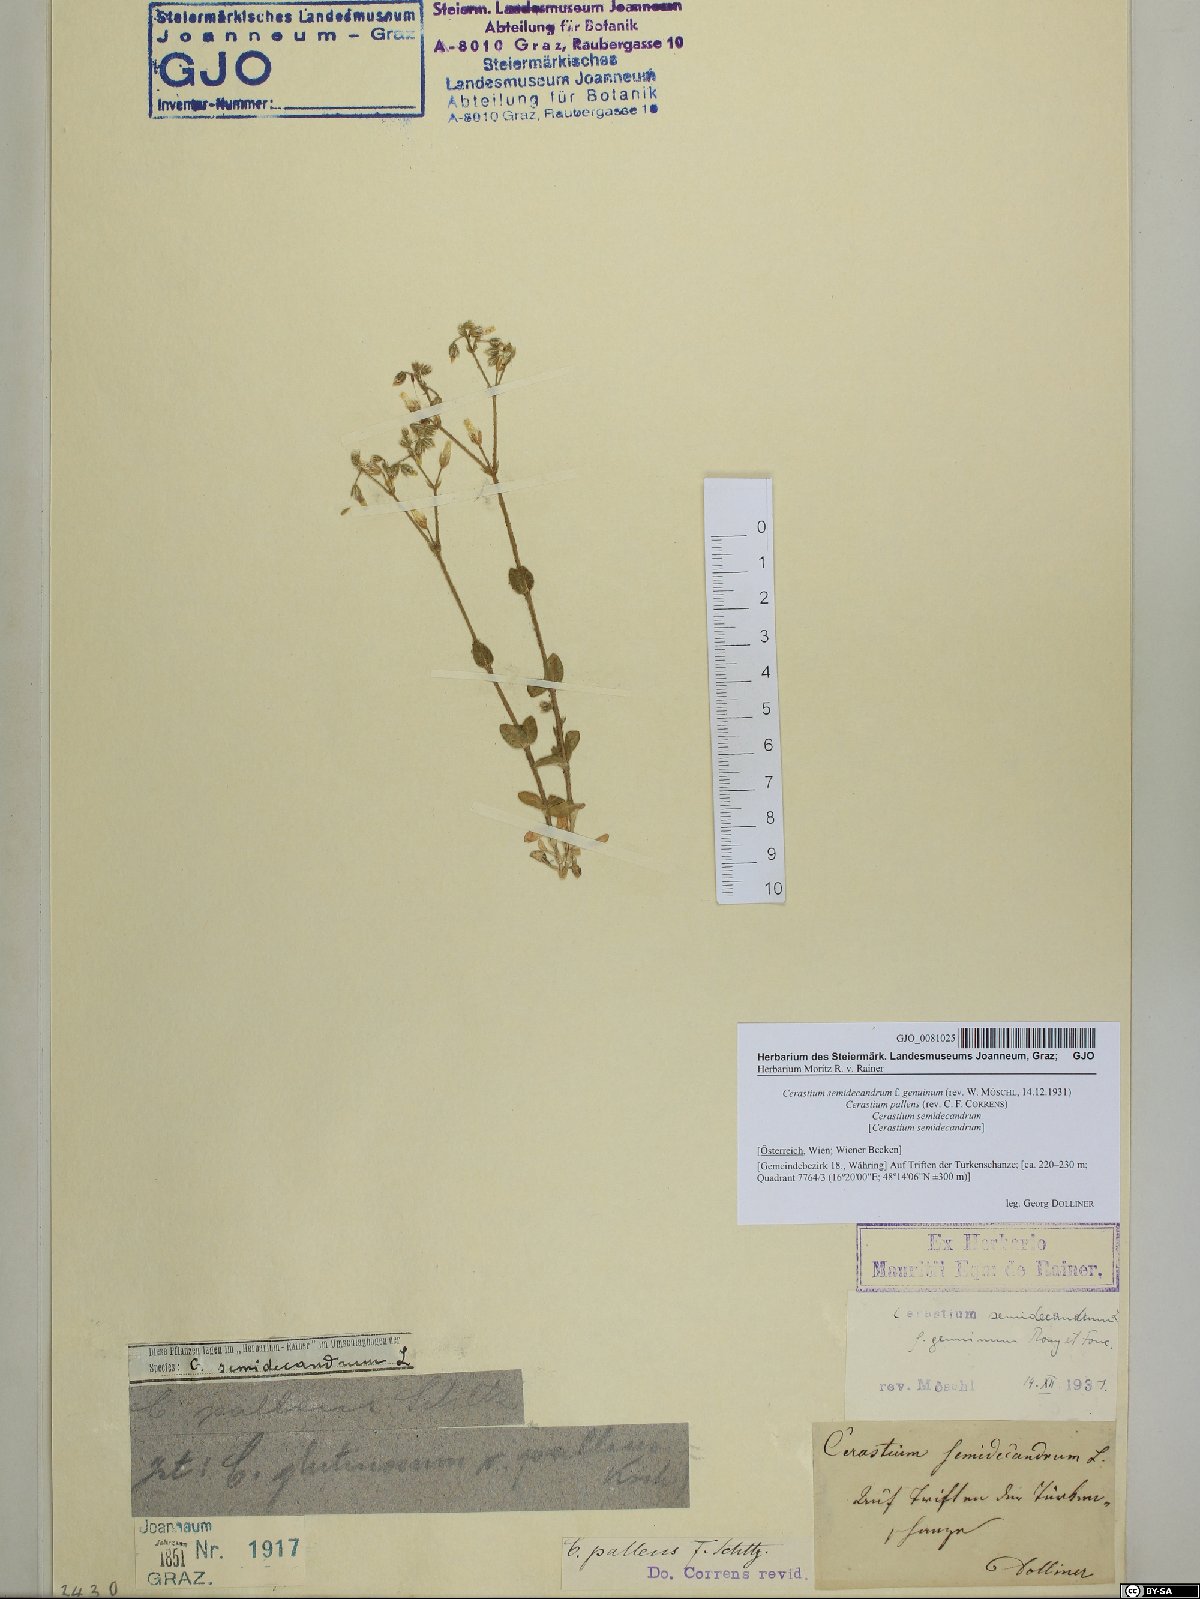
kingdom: Plantae
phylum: Tracheophyta
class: Magnoliopsida
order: Caryophyllales
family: Caryophyllaceae
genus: Cerastium
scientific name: Cerastium semidecandrum
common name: Little mouse-ear
